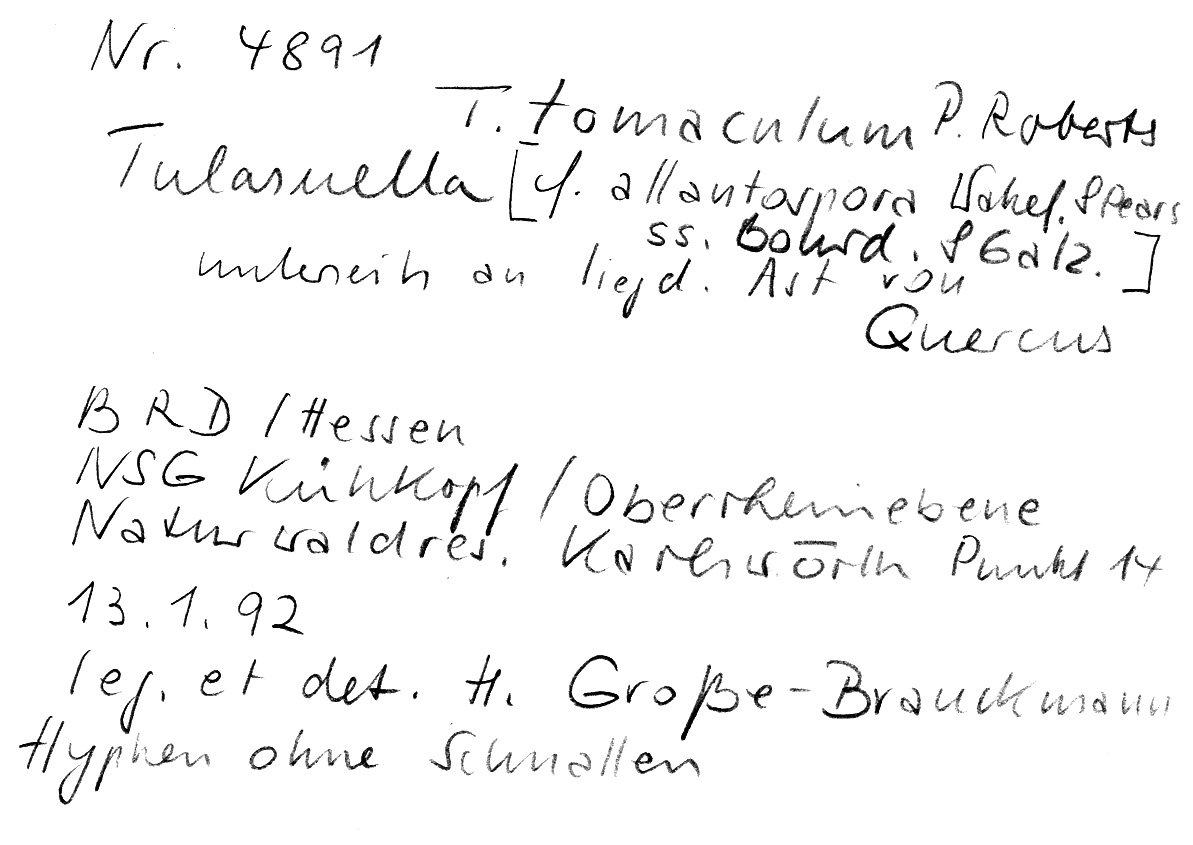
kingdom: Fungi
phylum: Basidiomycota
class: Agaricomycetes
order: Cantharellales
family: Tulasnellaceae
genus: Tulasnella
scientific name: Tulasnella tomaculum
